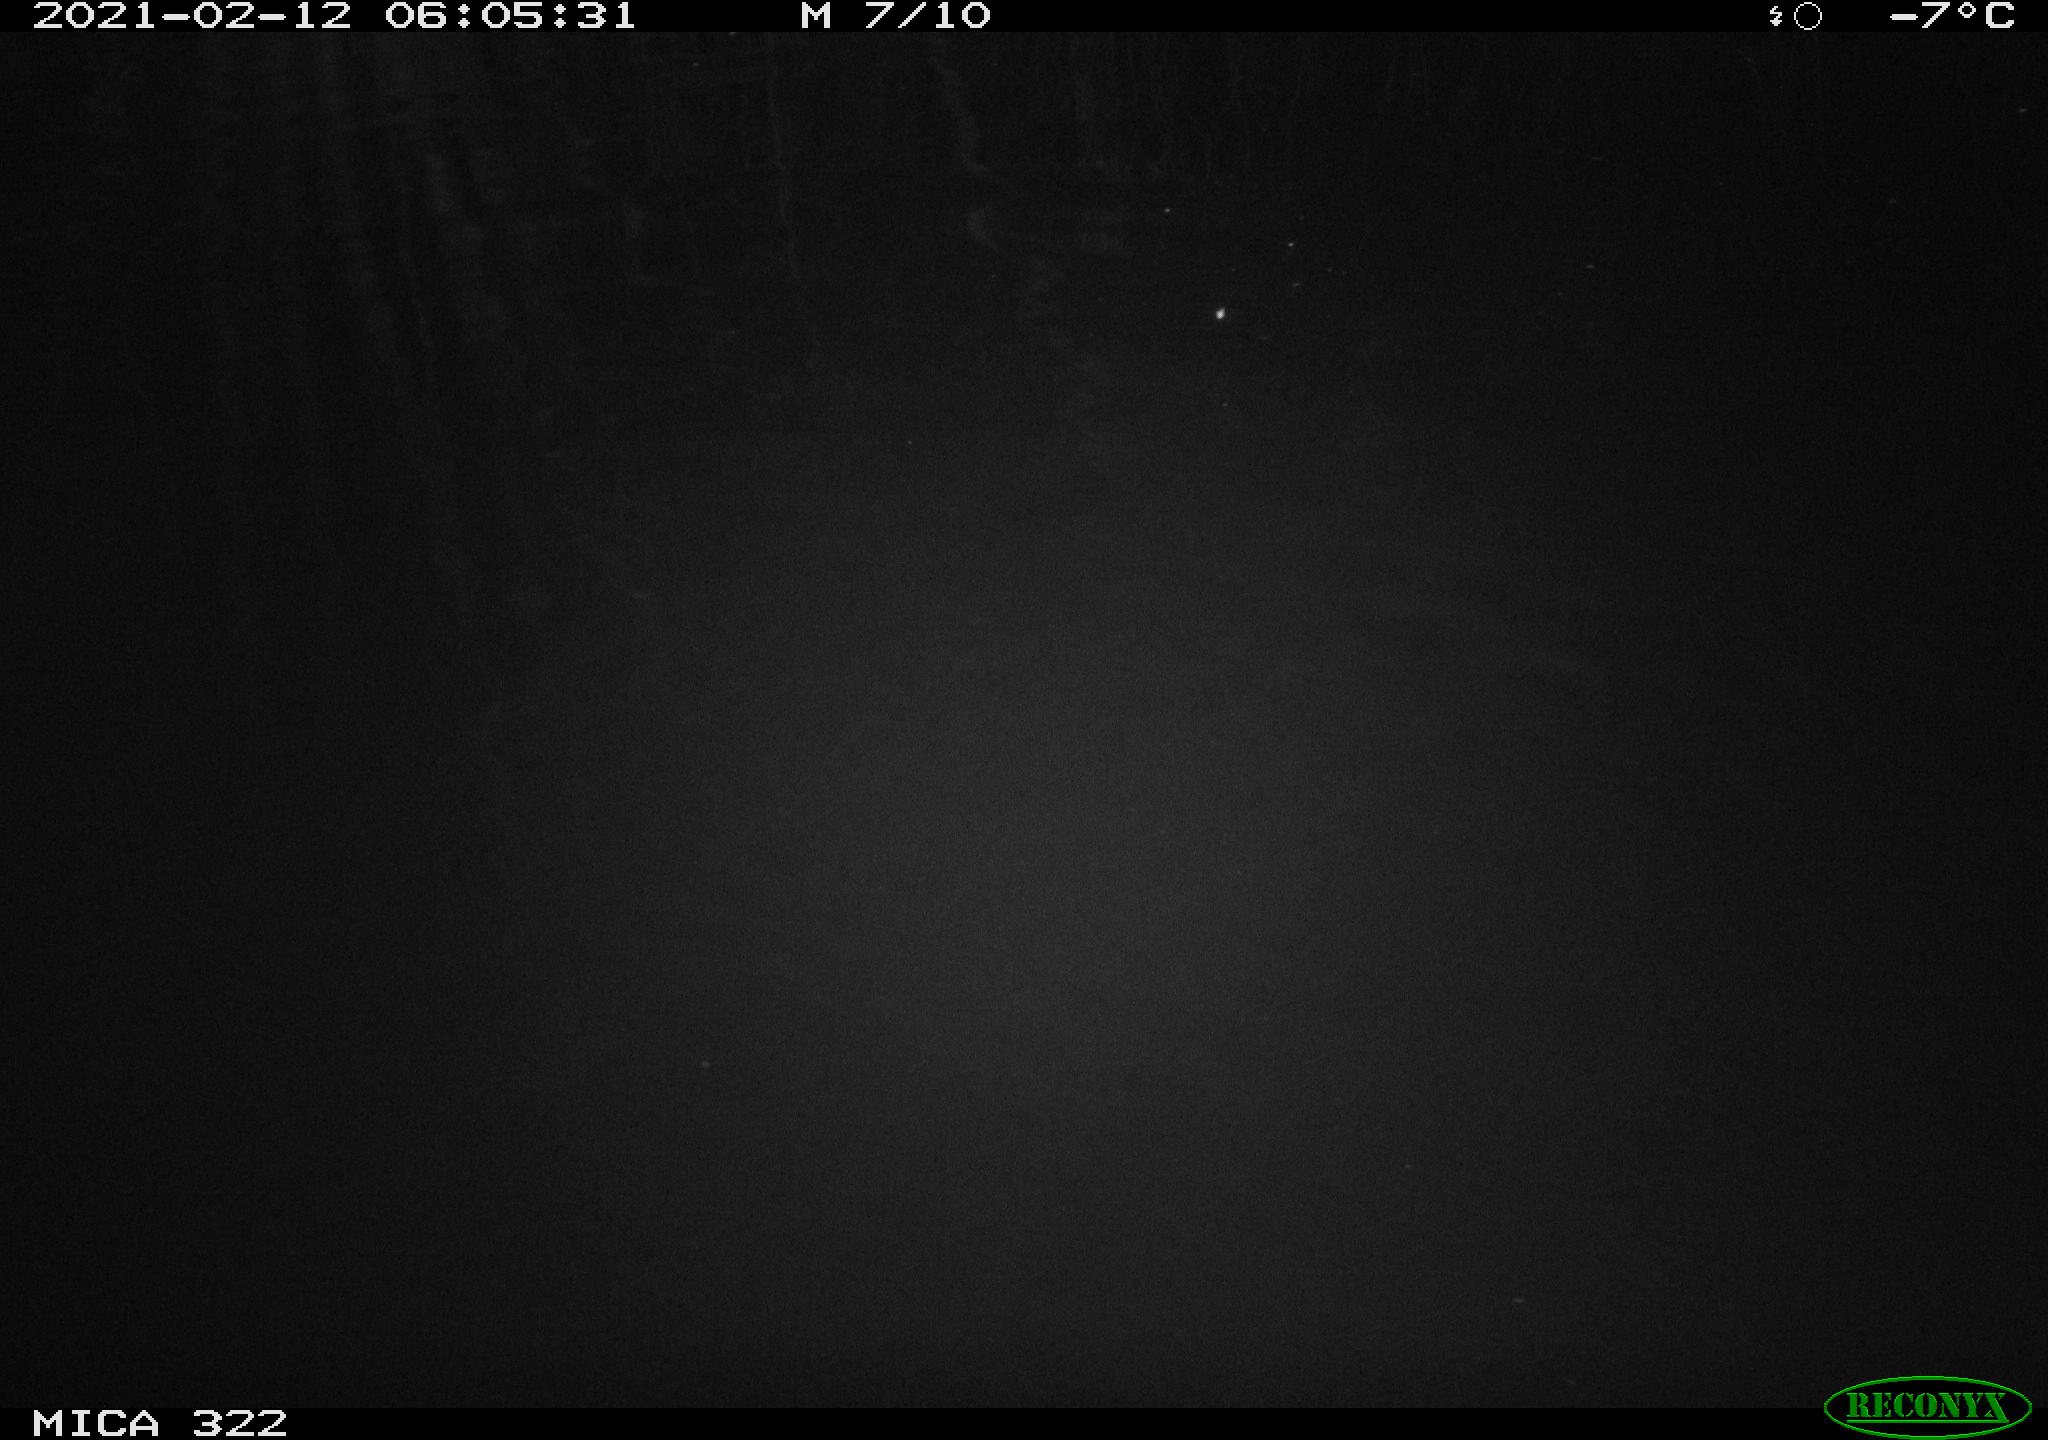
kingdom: Animalia
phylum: Chordata
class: Aves
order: Anseriformes
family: Anatidae
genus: Anas
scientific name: Anas platyrhynchos
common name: Mallard
